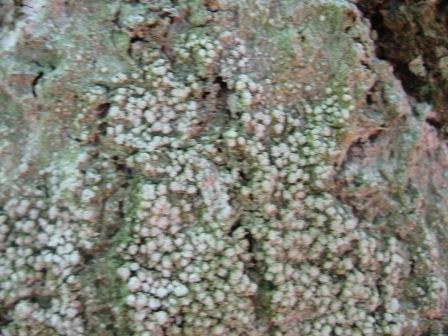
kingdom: Fungi
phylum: Ascomycota
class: Lecanoromycetes
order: Pertusariales
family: Pertusariaceae
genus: Lepra
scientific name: Lepra amara
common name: bitter prikvortelav
